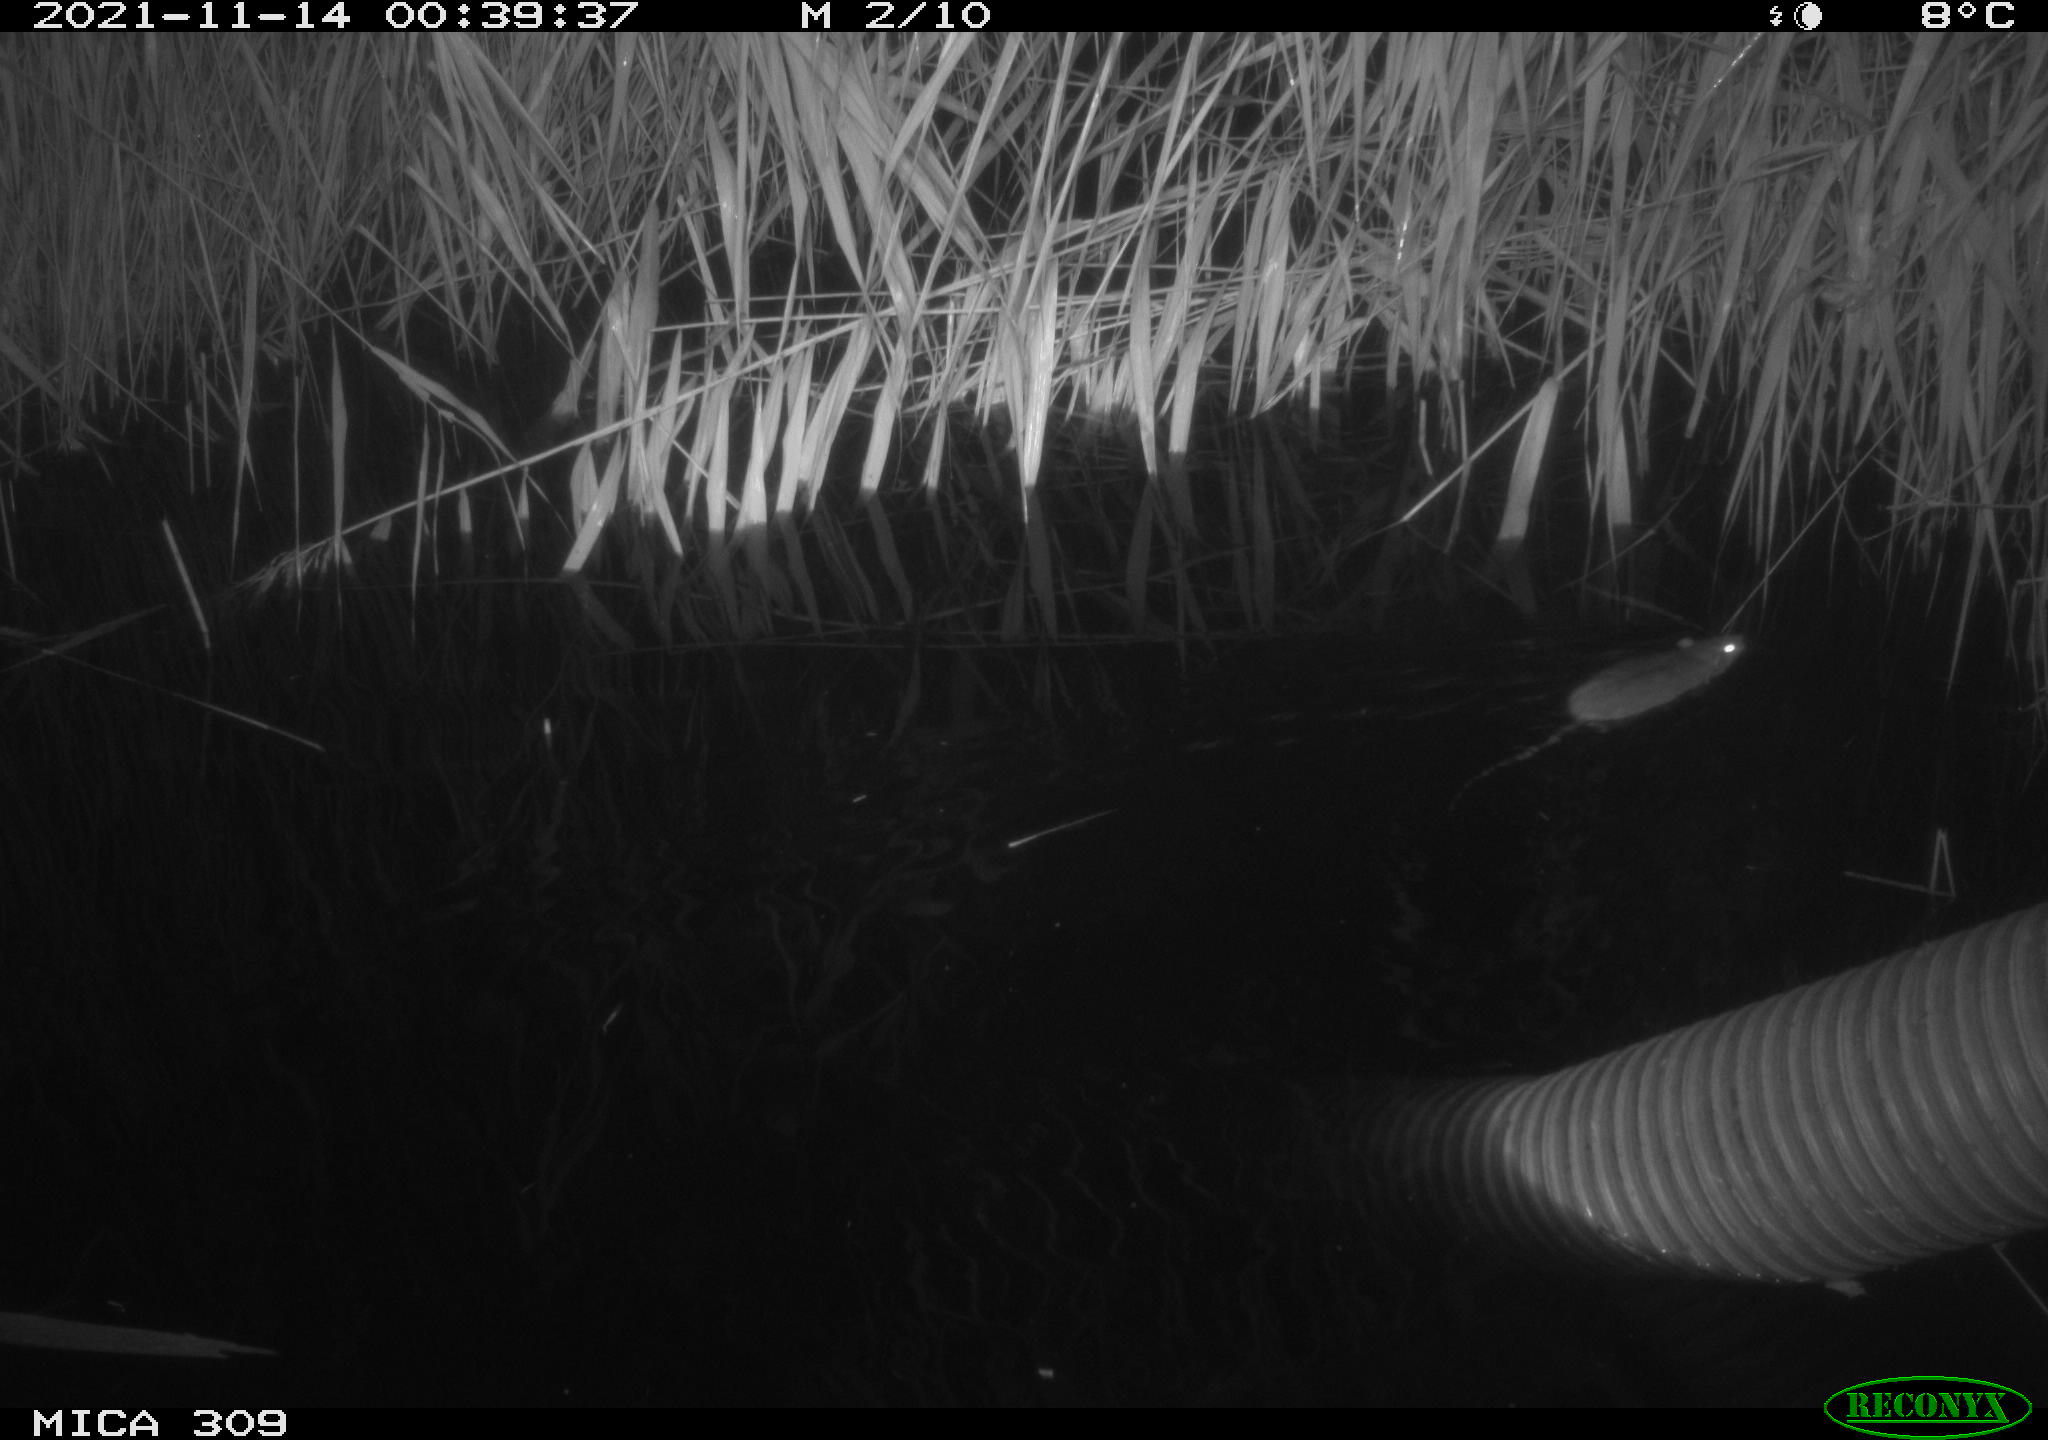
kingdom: Animalia
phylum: Chordata
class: Mammalia
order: Rodentia
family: Muridae
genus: Rattus
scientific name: Rattus norvegicus
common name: Brown rat
